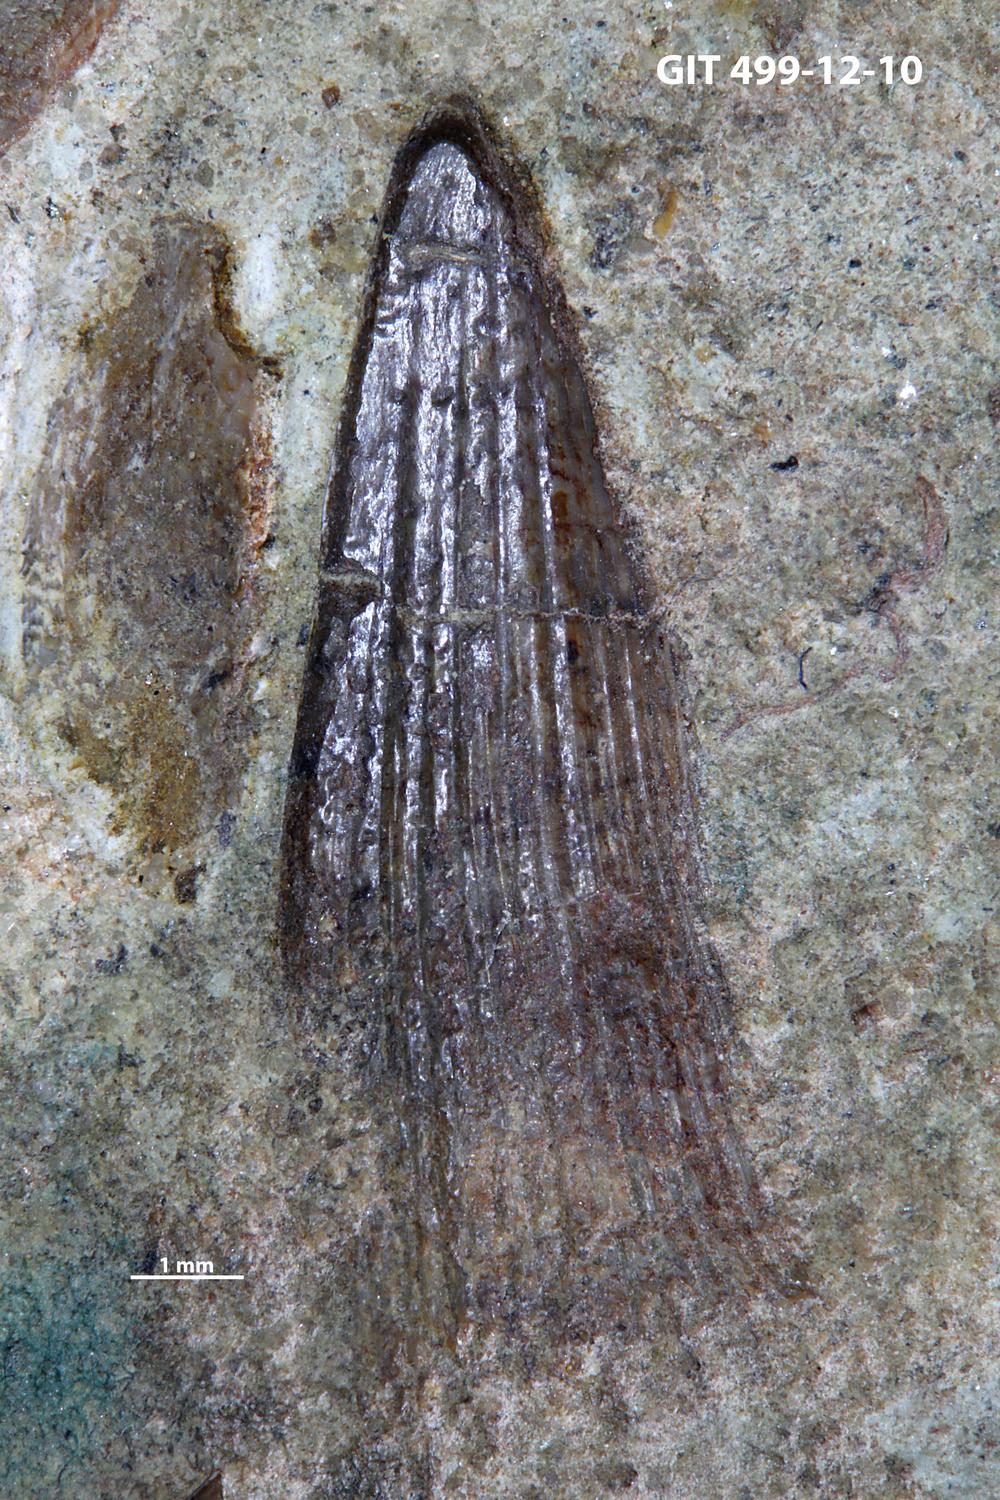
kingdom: Animalia
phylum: Chordata
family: Holoptychiidae
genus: Glyptolepis
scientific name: Glyptolepis
